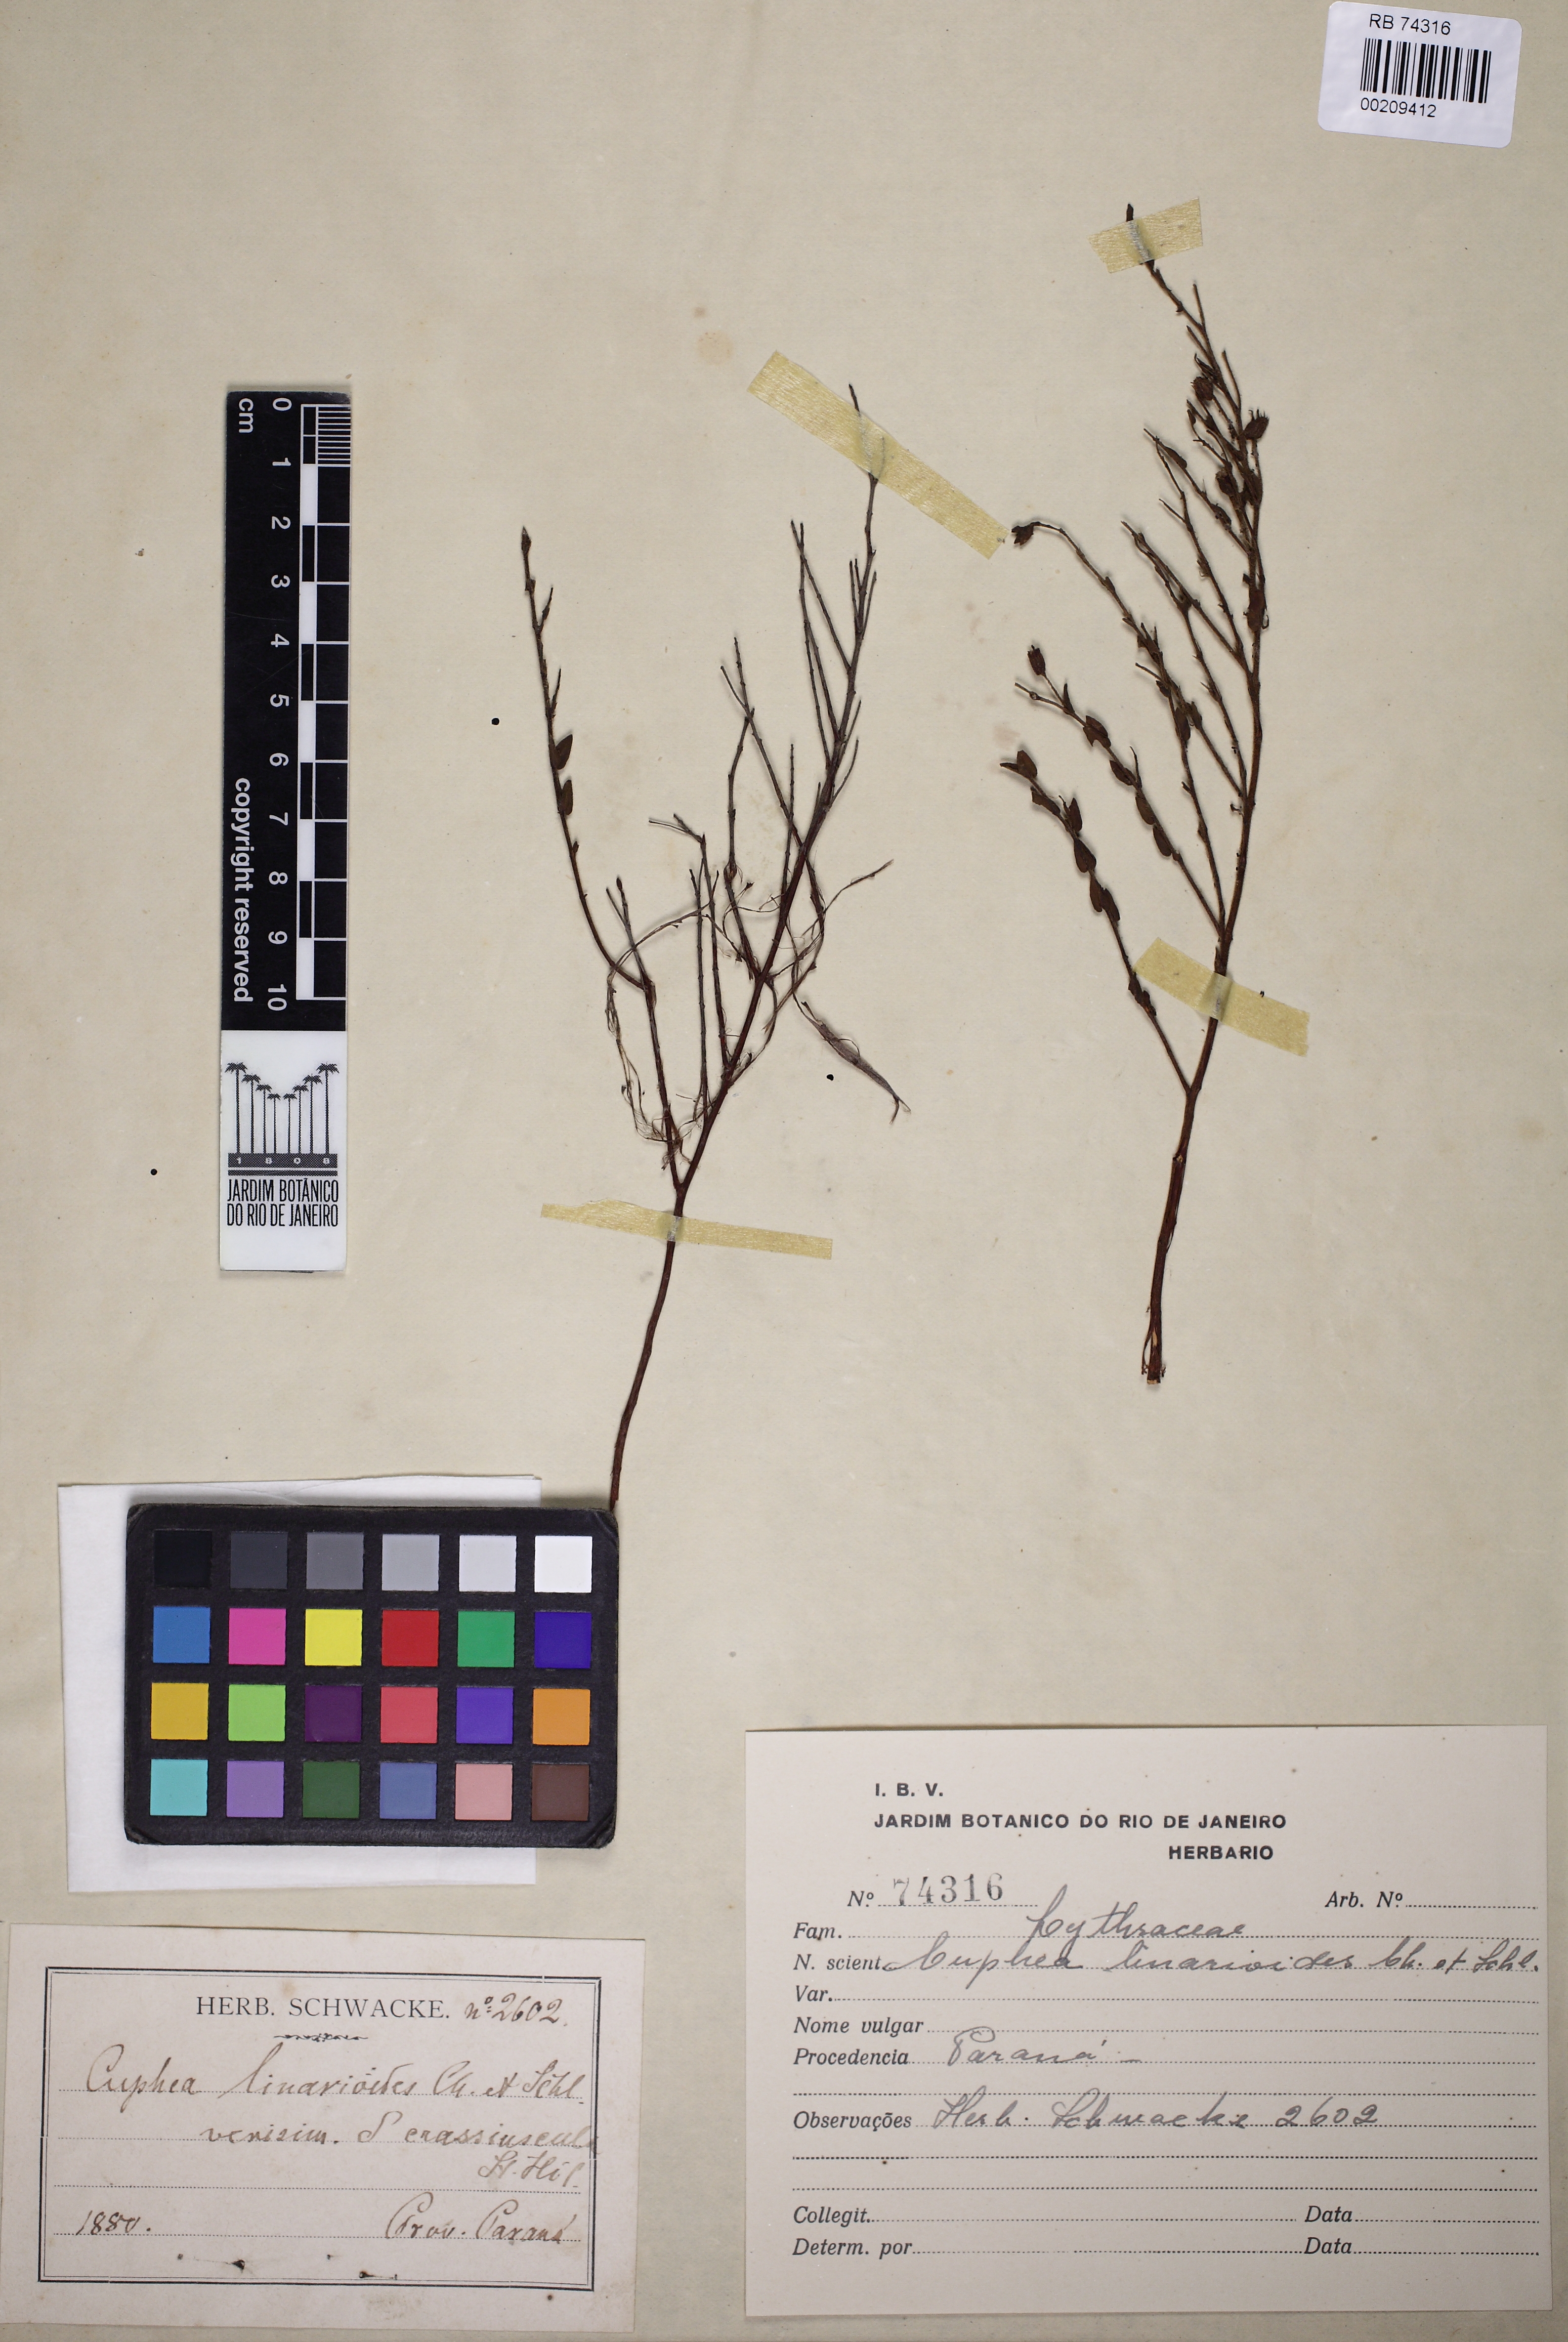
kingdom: Plantae
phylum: Tracheophyta
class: Magnoliopsida
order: Myrtales
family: Lythraceae
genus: Cuphea
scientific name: Cuphea linarioides
